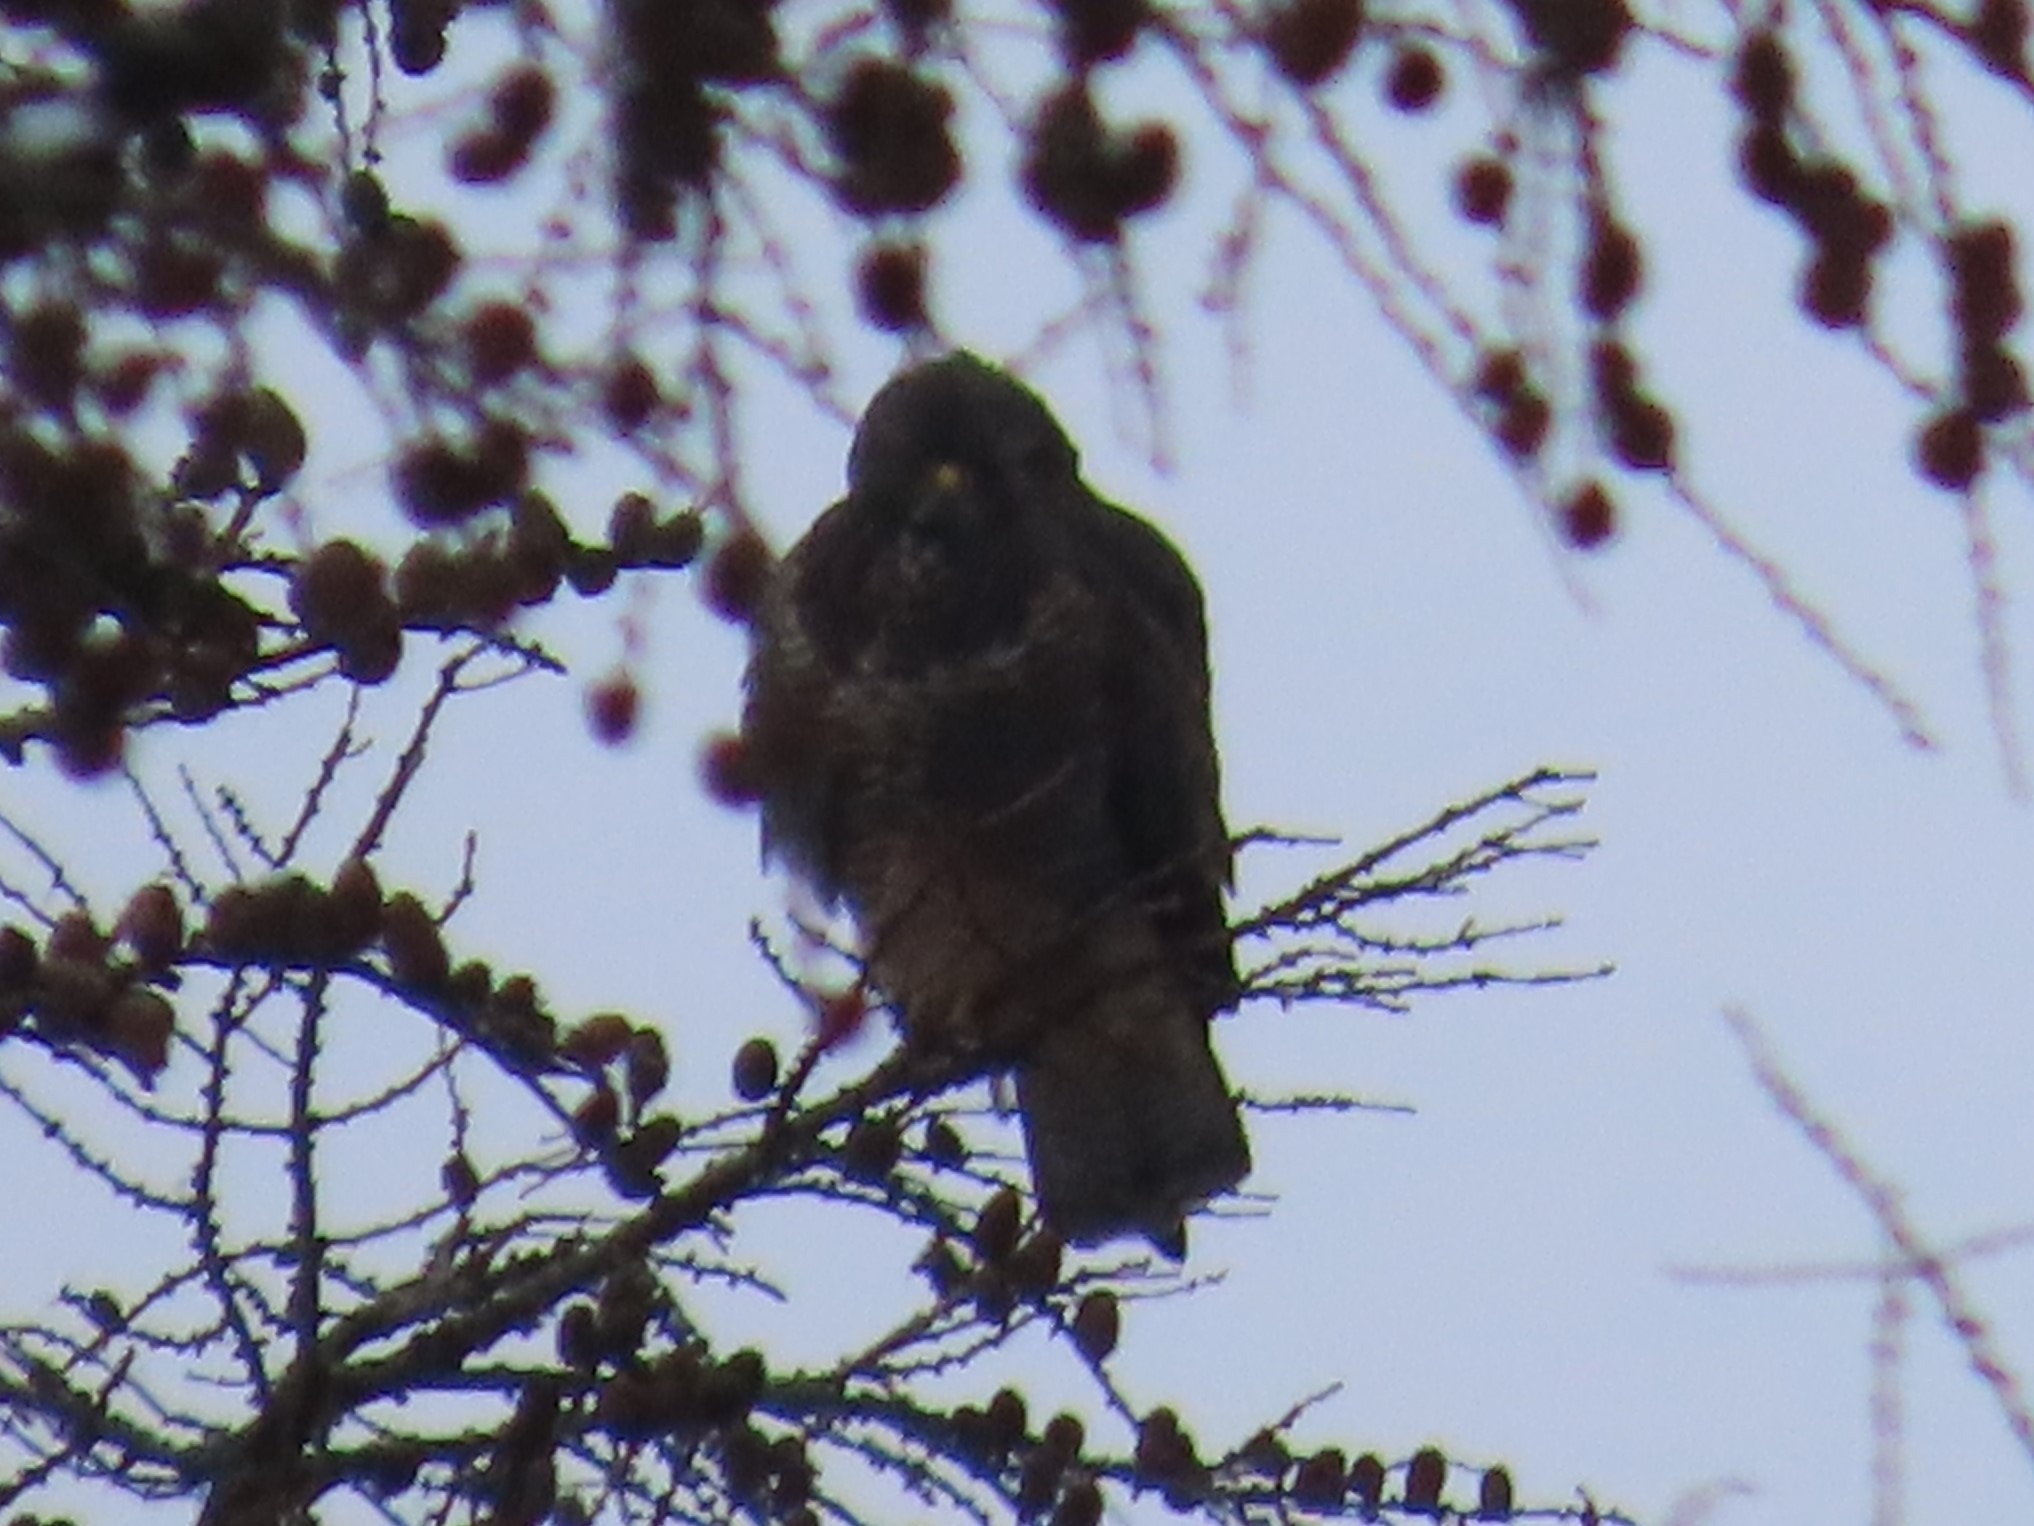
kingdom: Animalia
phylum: Chordata
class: Aves
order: Accipitriformes
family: Accipitridae
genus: Buteo
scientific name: Buteo buteo
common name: Musvåge
